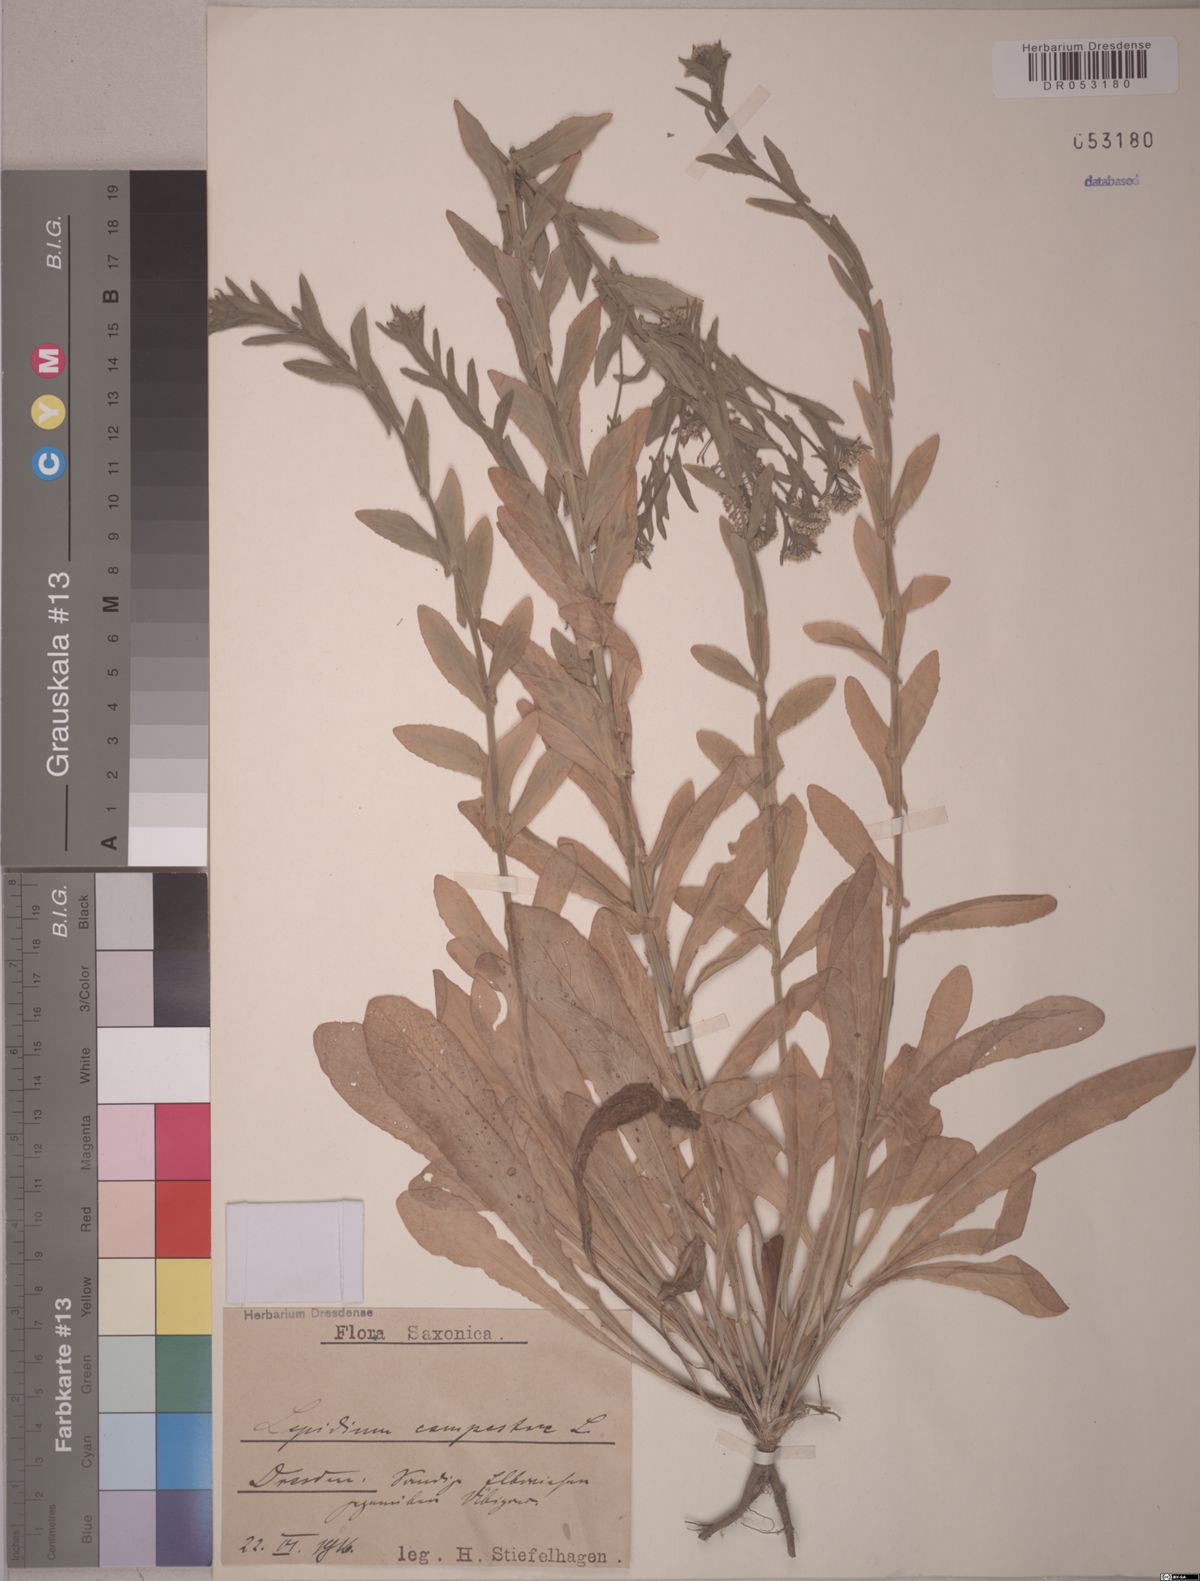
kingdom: Plantae
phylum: Tracheophyta
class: Magnoliopsida
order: Brassicales
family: Brassicaceae
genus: Lepidium
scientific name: Lepidium campestre
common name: Field pepperwort
